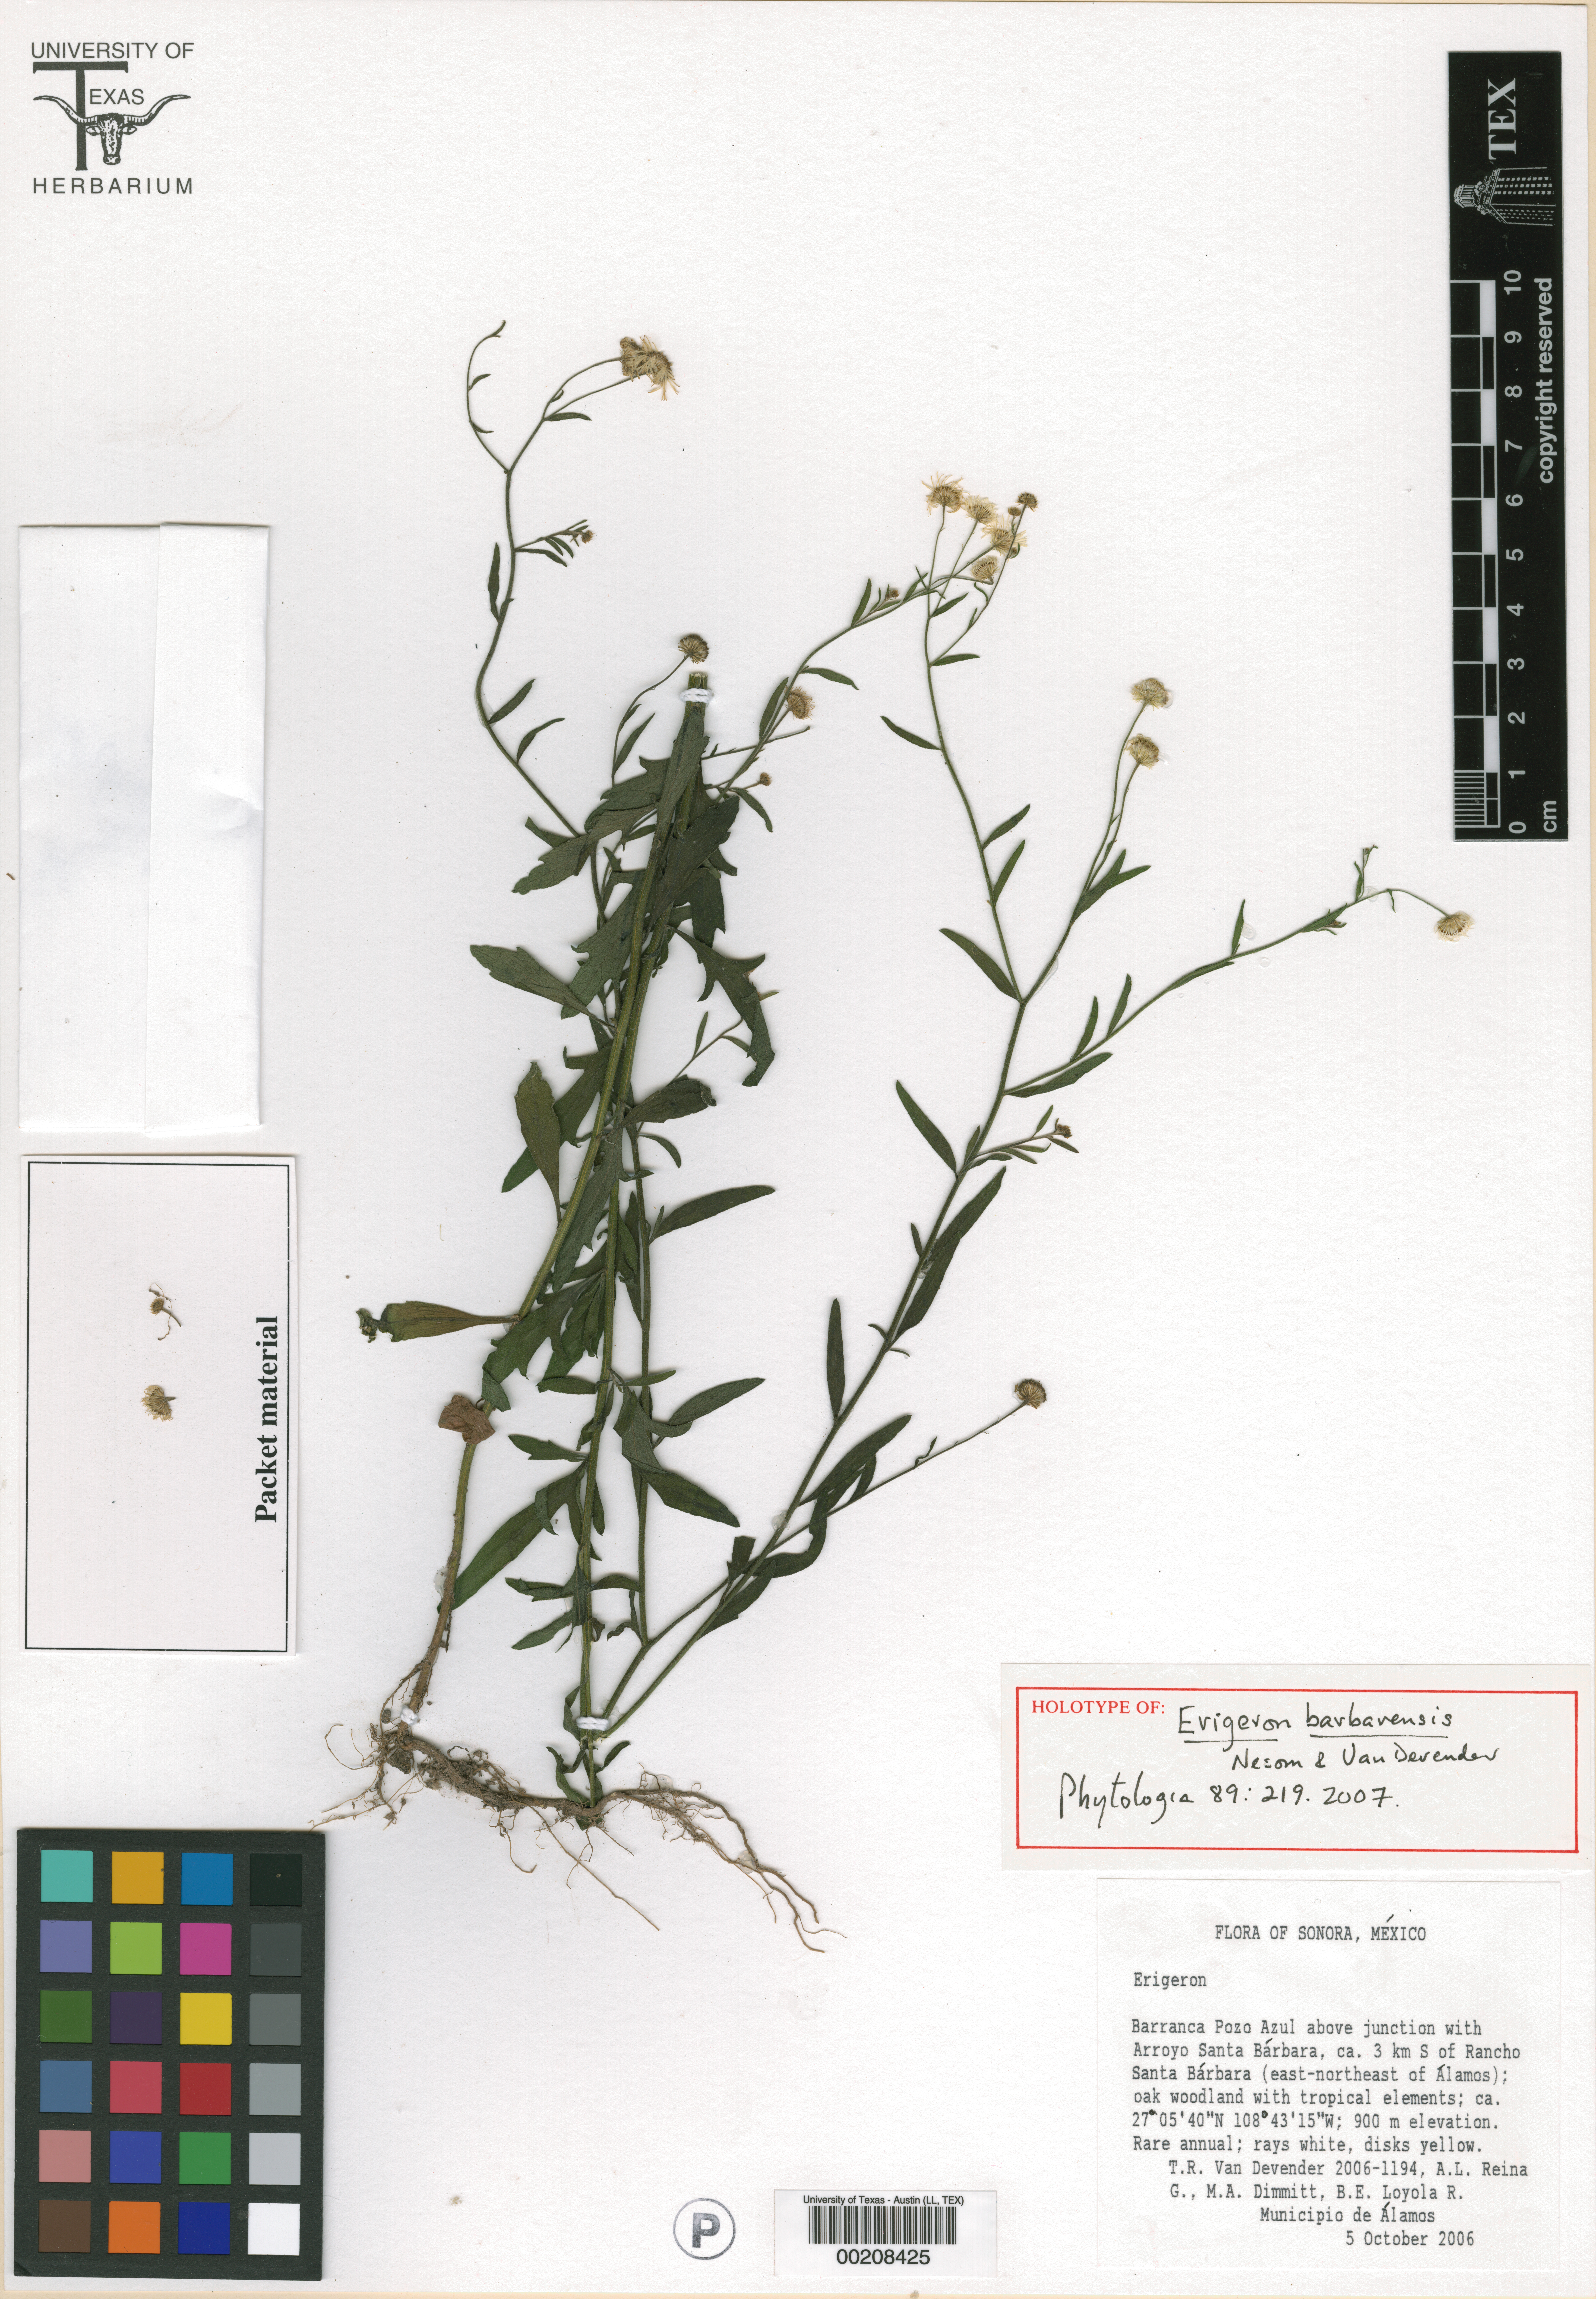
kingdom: Plantae
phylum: Tracheophyta
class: Magnoliopsida
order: Asterales
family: Asteraceae
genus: Erigeron
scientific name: Erigeron barbarensis
